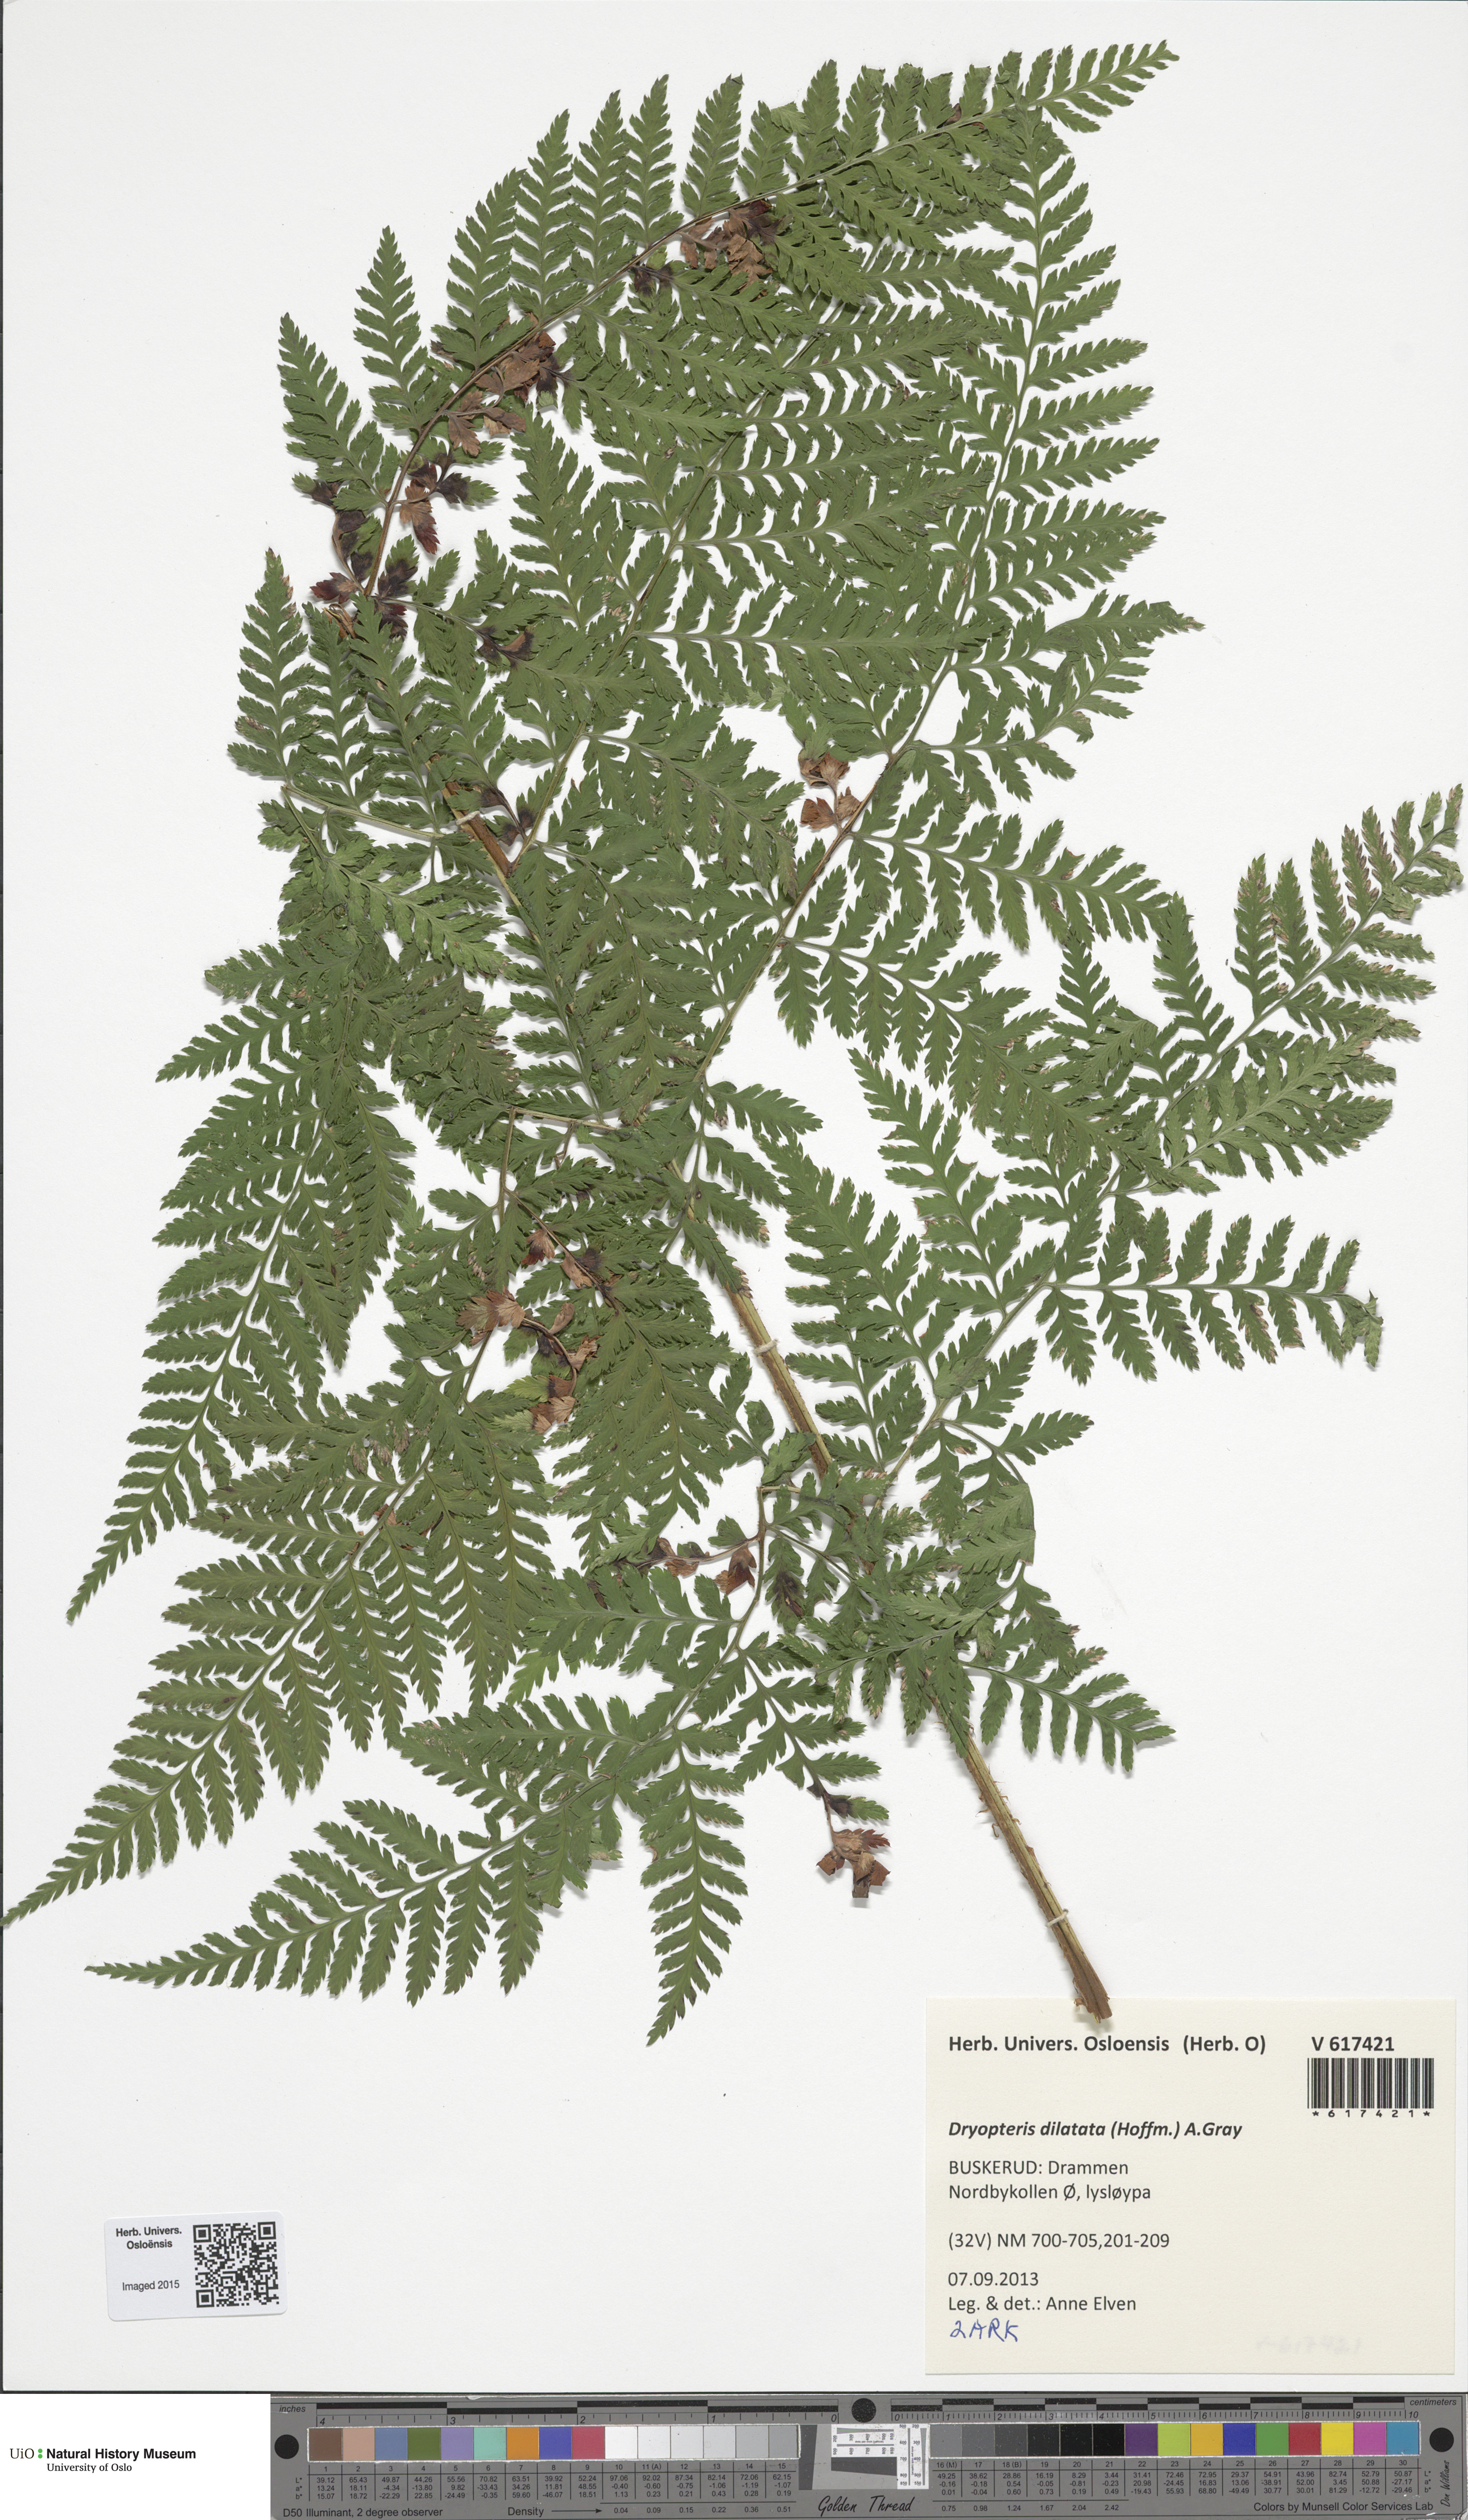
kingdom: Plantae
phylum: Tracheophyta
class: Polypodiopsida
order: Polypodiales
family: Dryopteridaceae
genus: Dryopteris
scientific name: Dryopteris dilatata
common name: Broad buckler-fern
